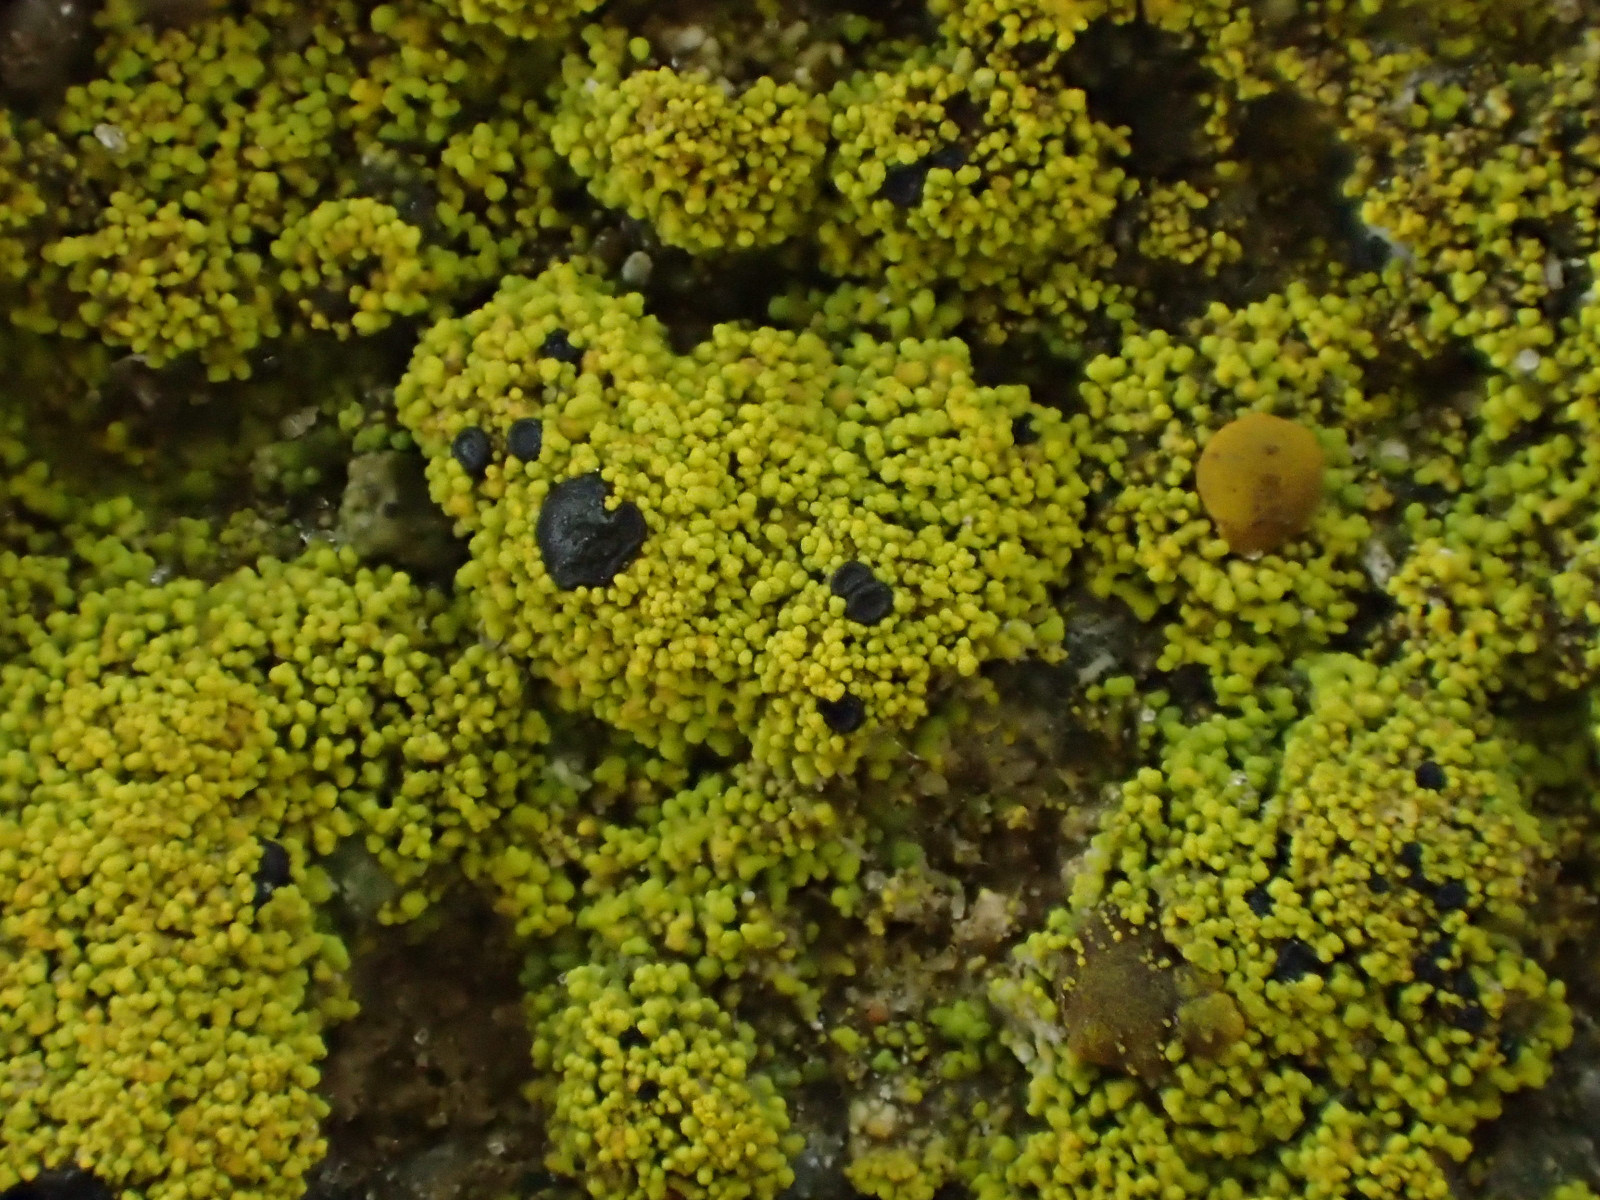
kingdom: Fungi
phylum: Ascomycota
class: Candelariomycetes
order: Candelariales
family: Candelariaceae
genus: Candelariella
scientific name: Candelariella vitellina
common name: almindelig æggeblommelav
